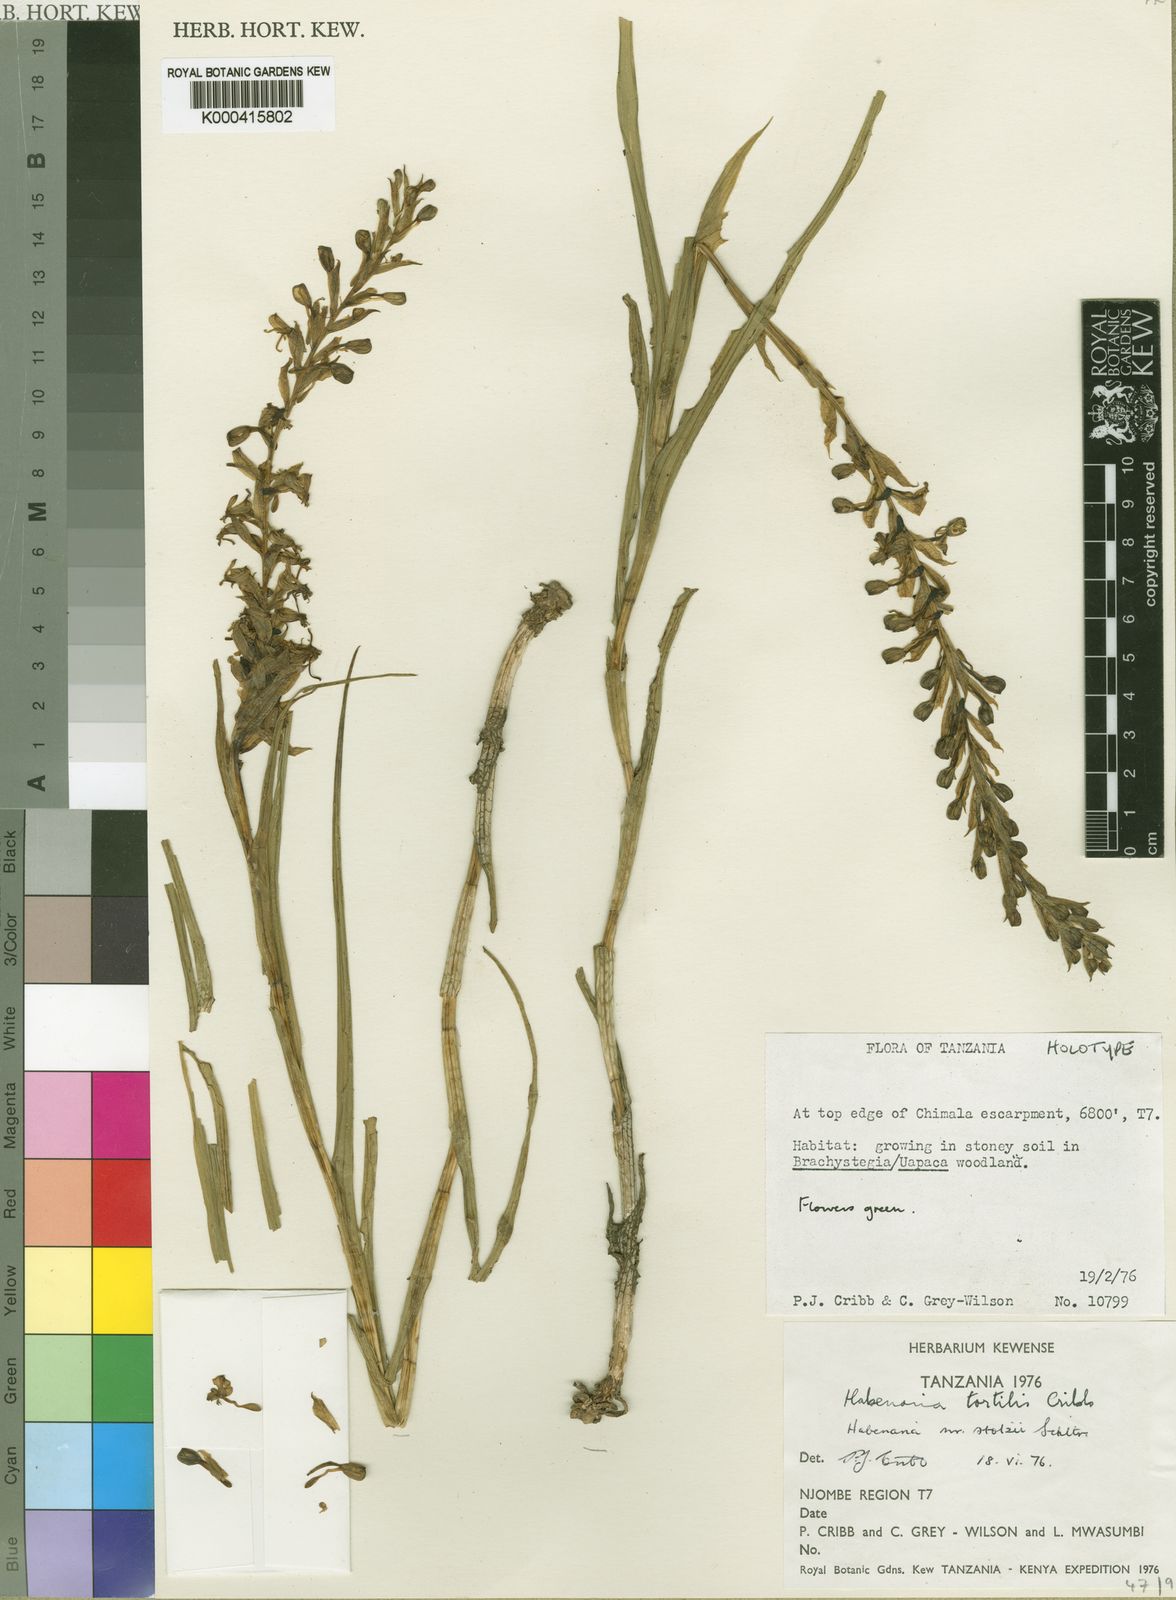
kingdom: Plantae
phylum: Tracheophyta
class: Liliopsida
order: Asparagales
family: Orchidaceae
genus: Habenaria
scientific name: Habenaria tortilis
